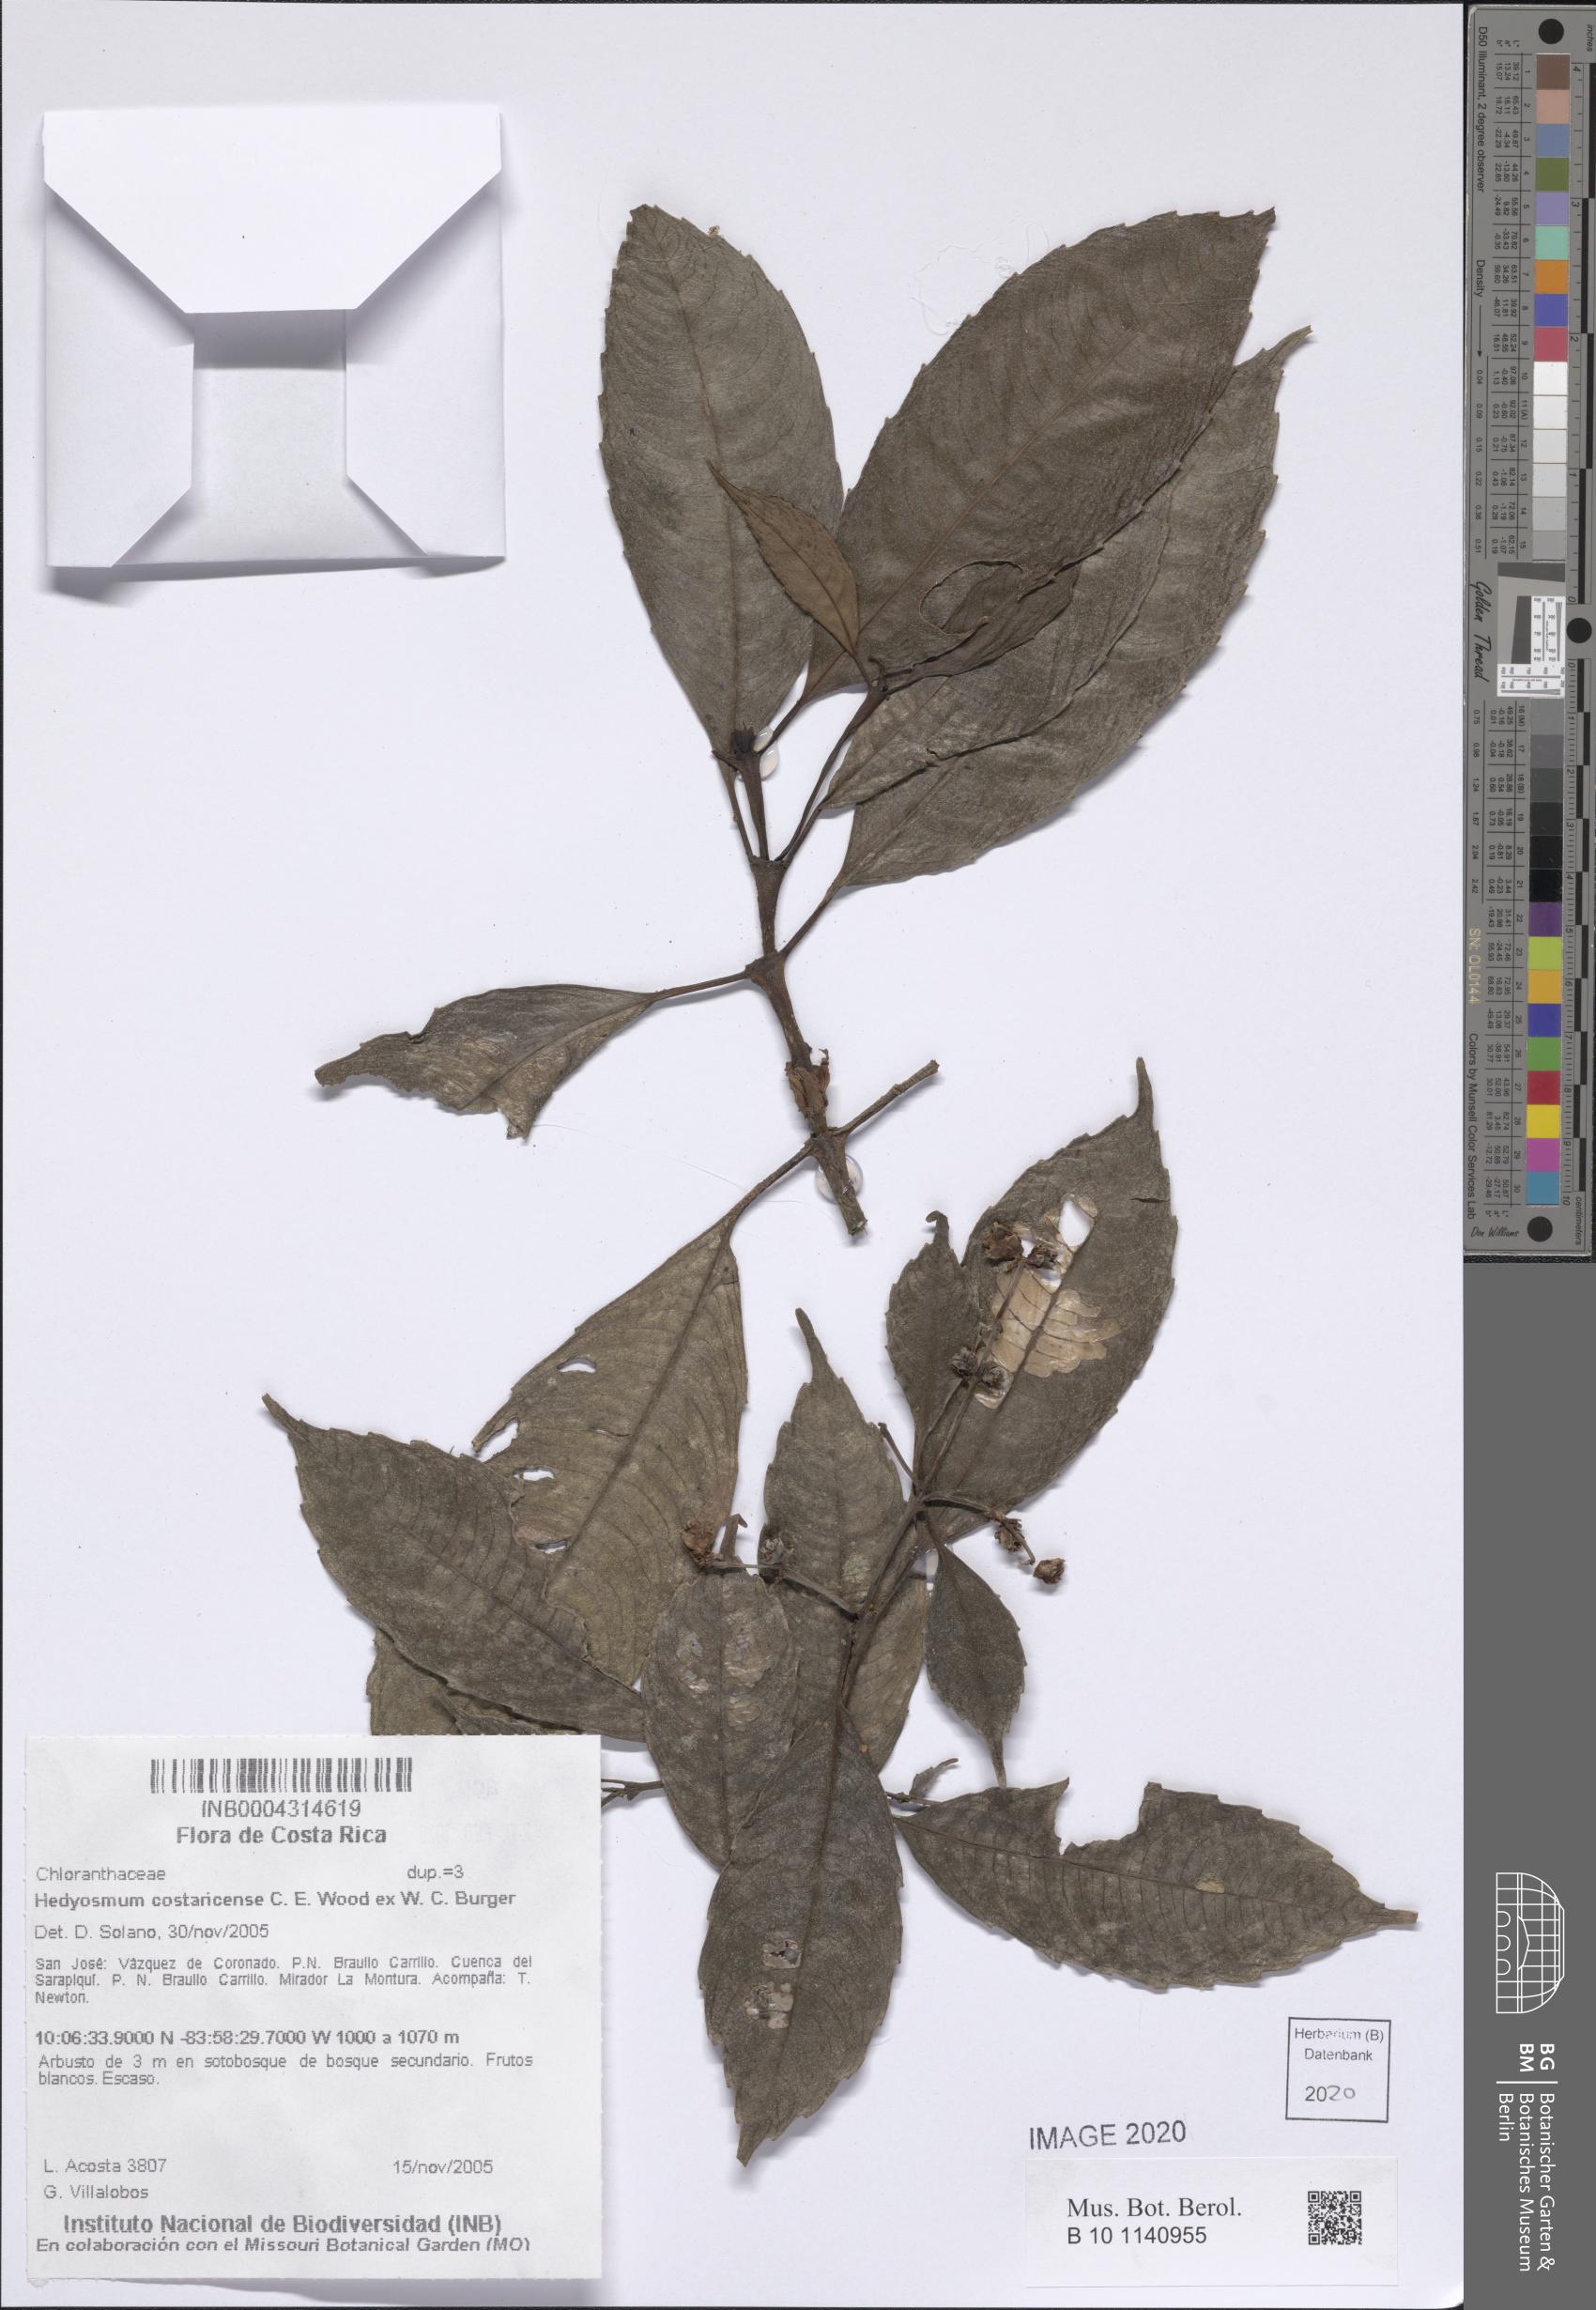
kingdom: Plantae
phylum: Tracheophyta
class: Magnoliopsida
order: Chloranthales
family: Chloranthaceae
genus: Hedyosmum
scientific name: Hedyosmum costaricense
